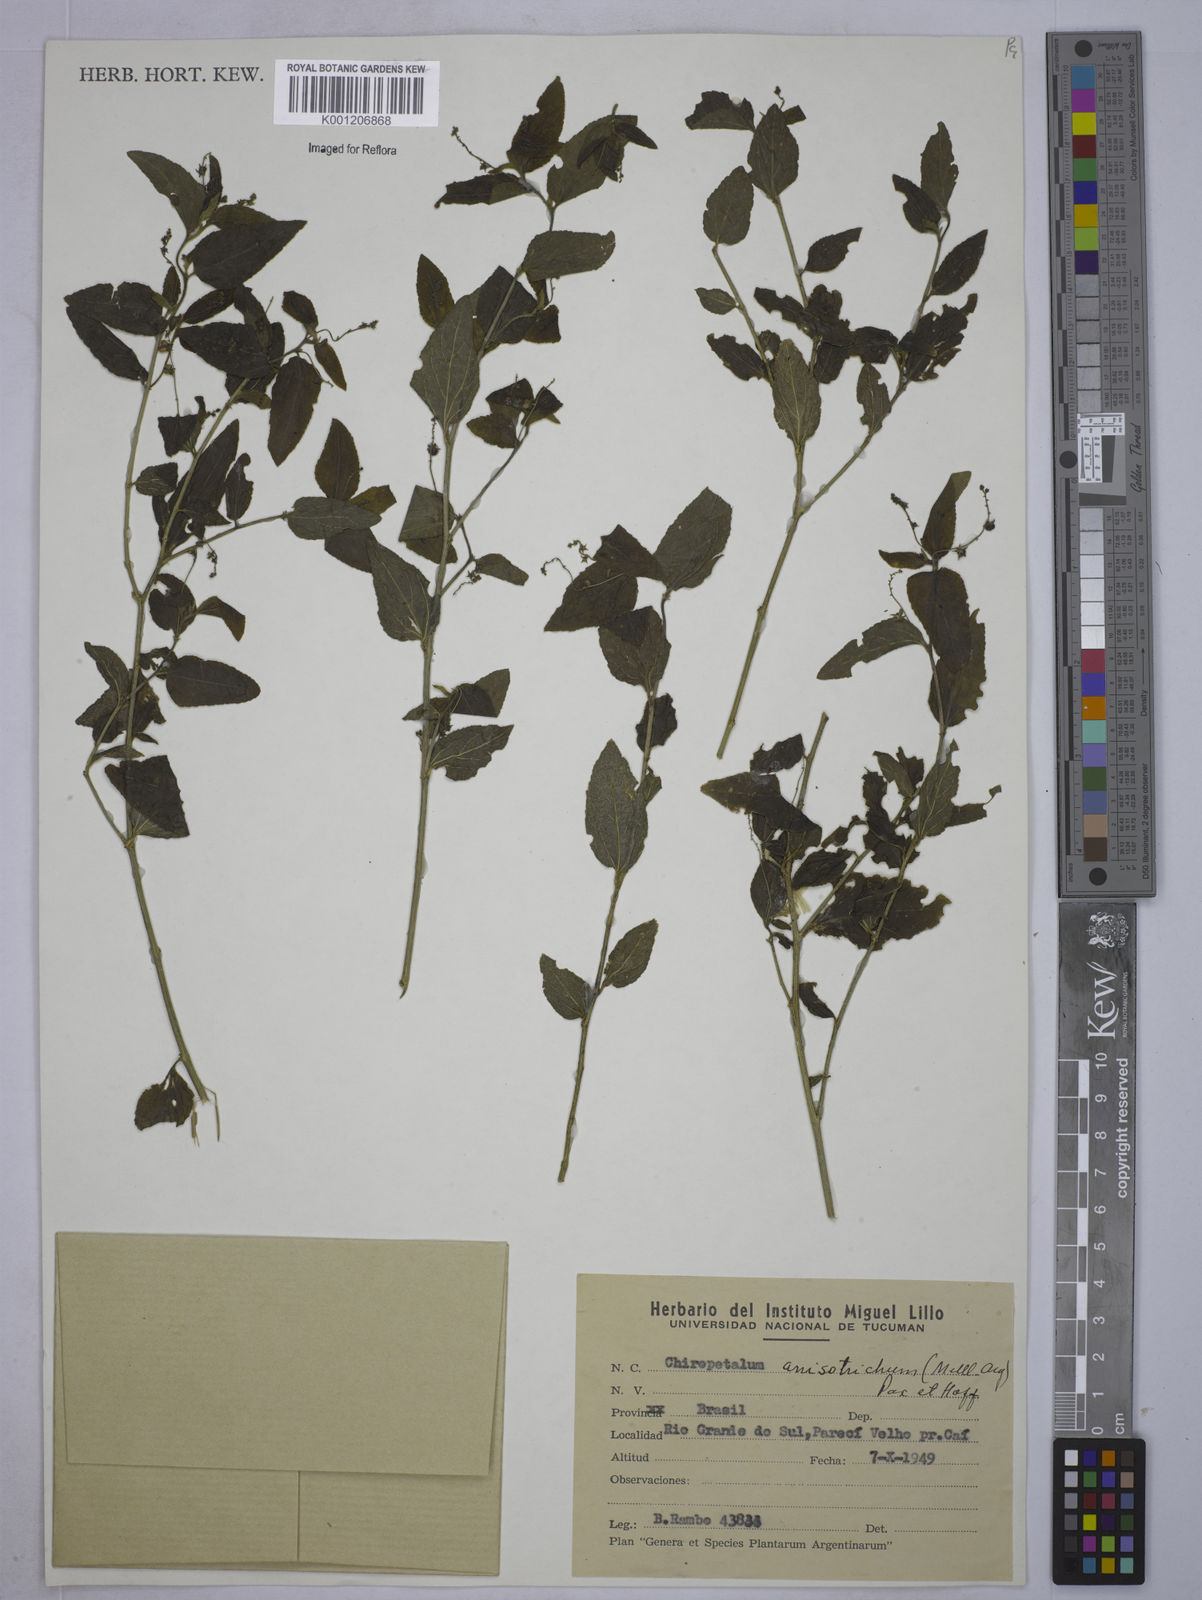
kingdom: Plantae
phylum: Tracheophyta
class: Magnoliopsida
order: Malpighiales
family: Euphorbiaceae
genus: Chiropetalum
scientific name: Chiropetalum
